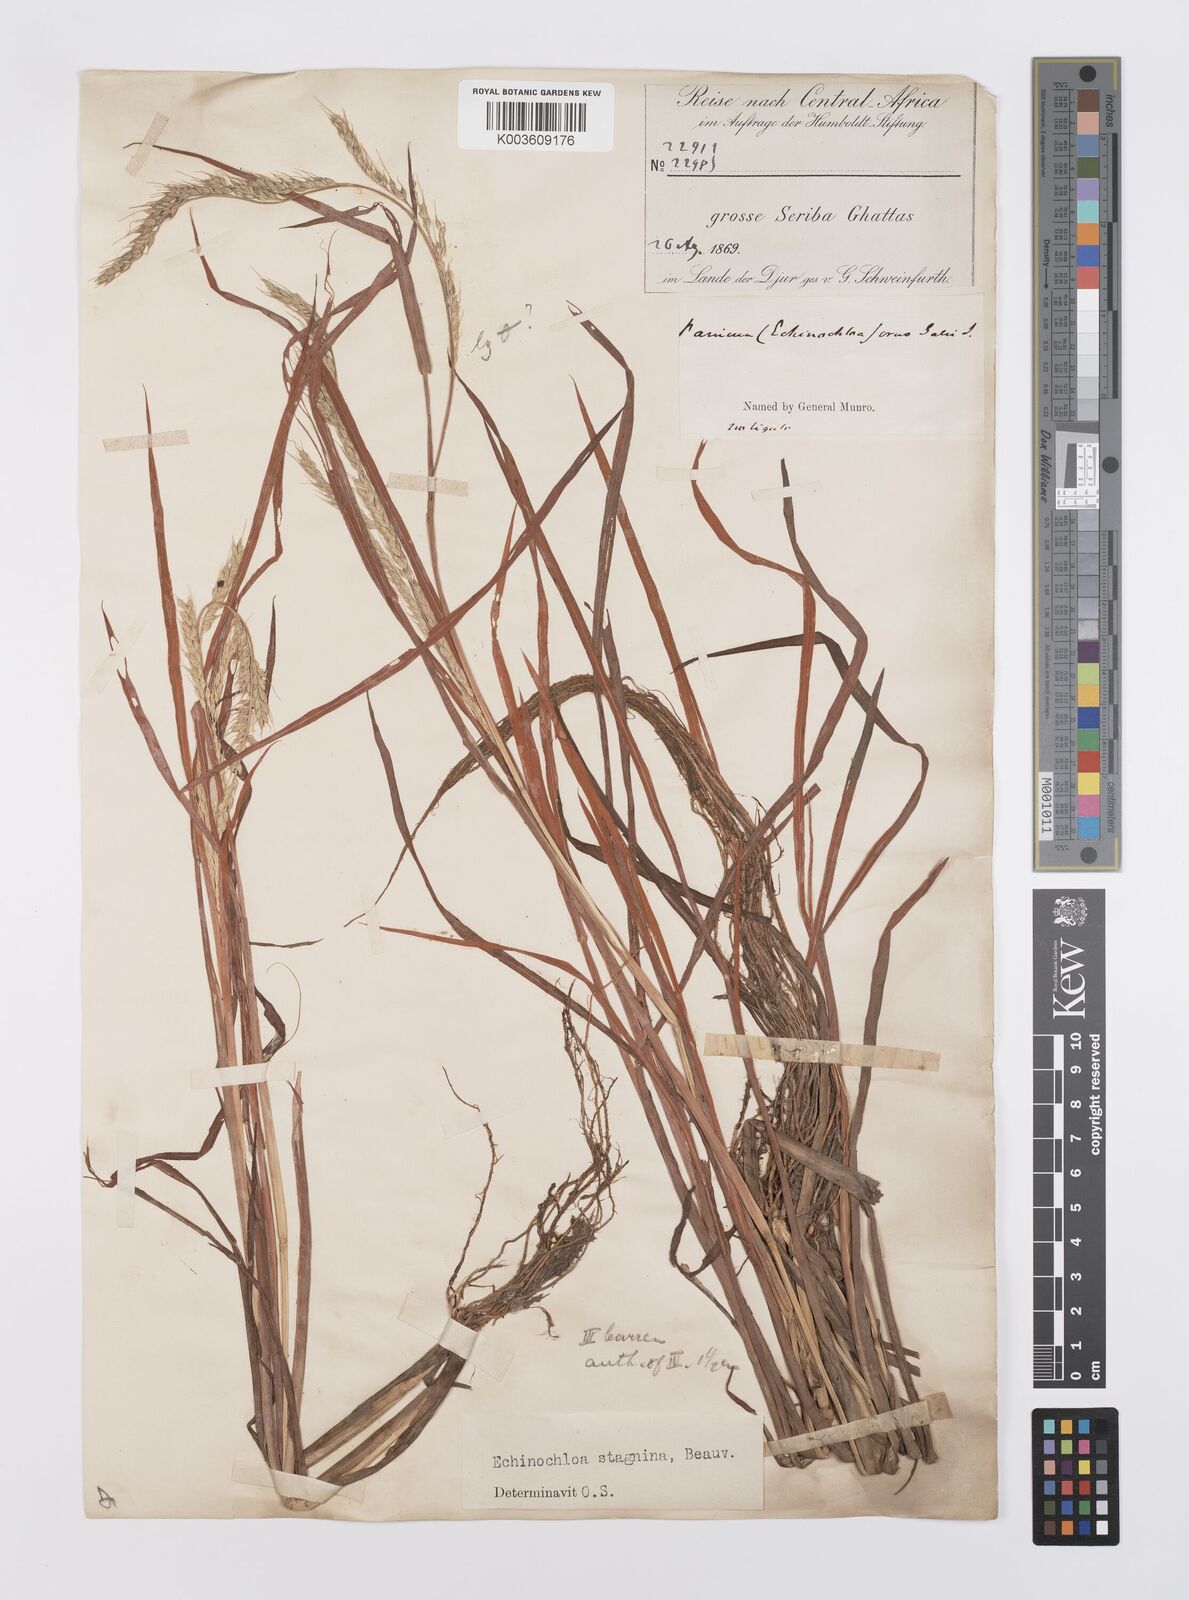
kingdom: Plantae
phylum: Tracheophyta
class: Liliopsida
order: Poales
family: Poaceae
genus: Echinochloa
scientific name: Echinochloa stagnina
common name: Burgu grass
